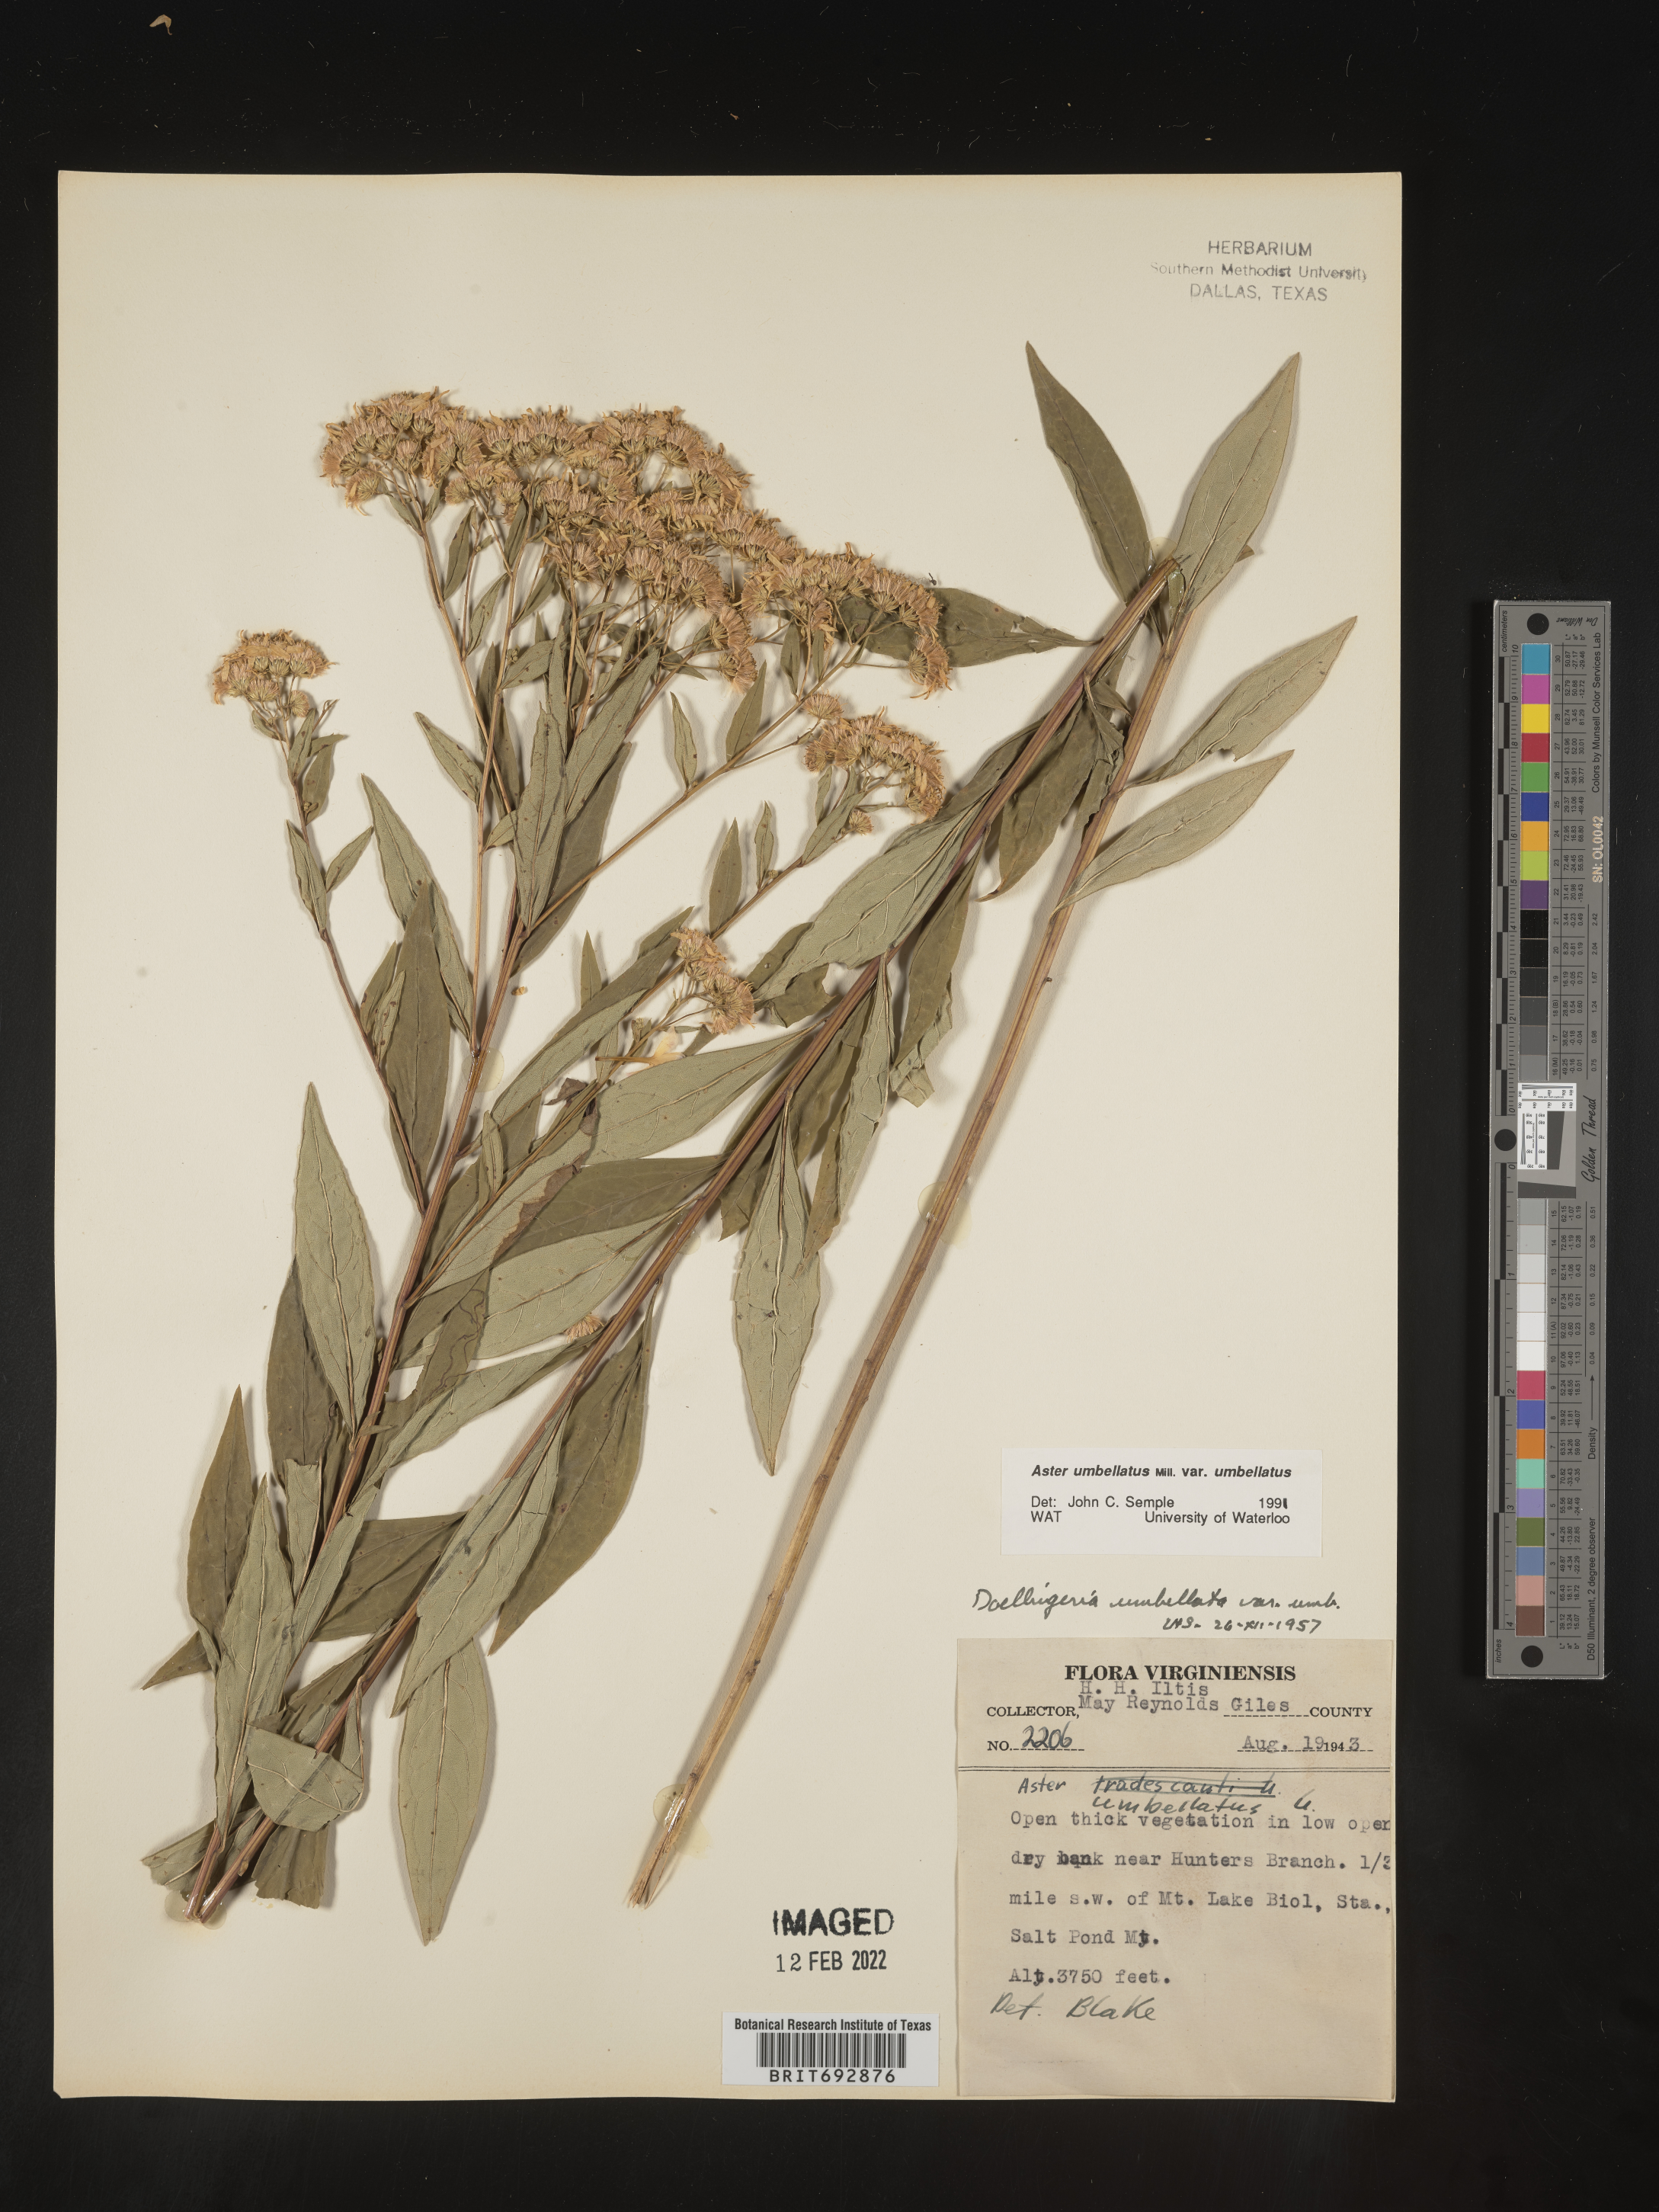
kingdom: Plantae
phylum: Tracheophyta
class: Magnoliopsida
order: Asterales
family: Asteraceae
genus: Doellingeria
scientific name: Doellingeria umbellata
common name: Flat-top white aster
